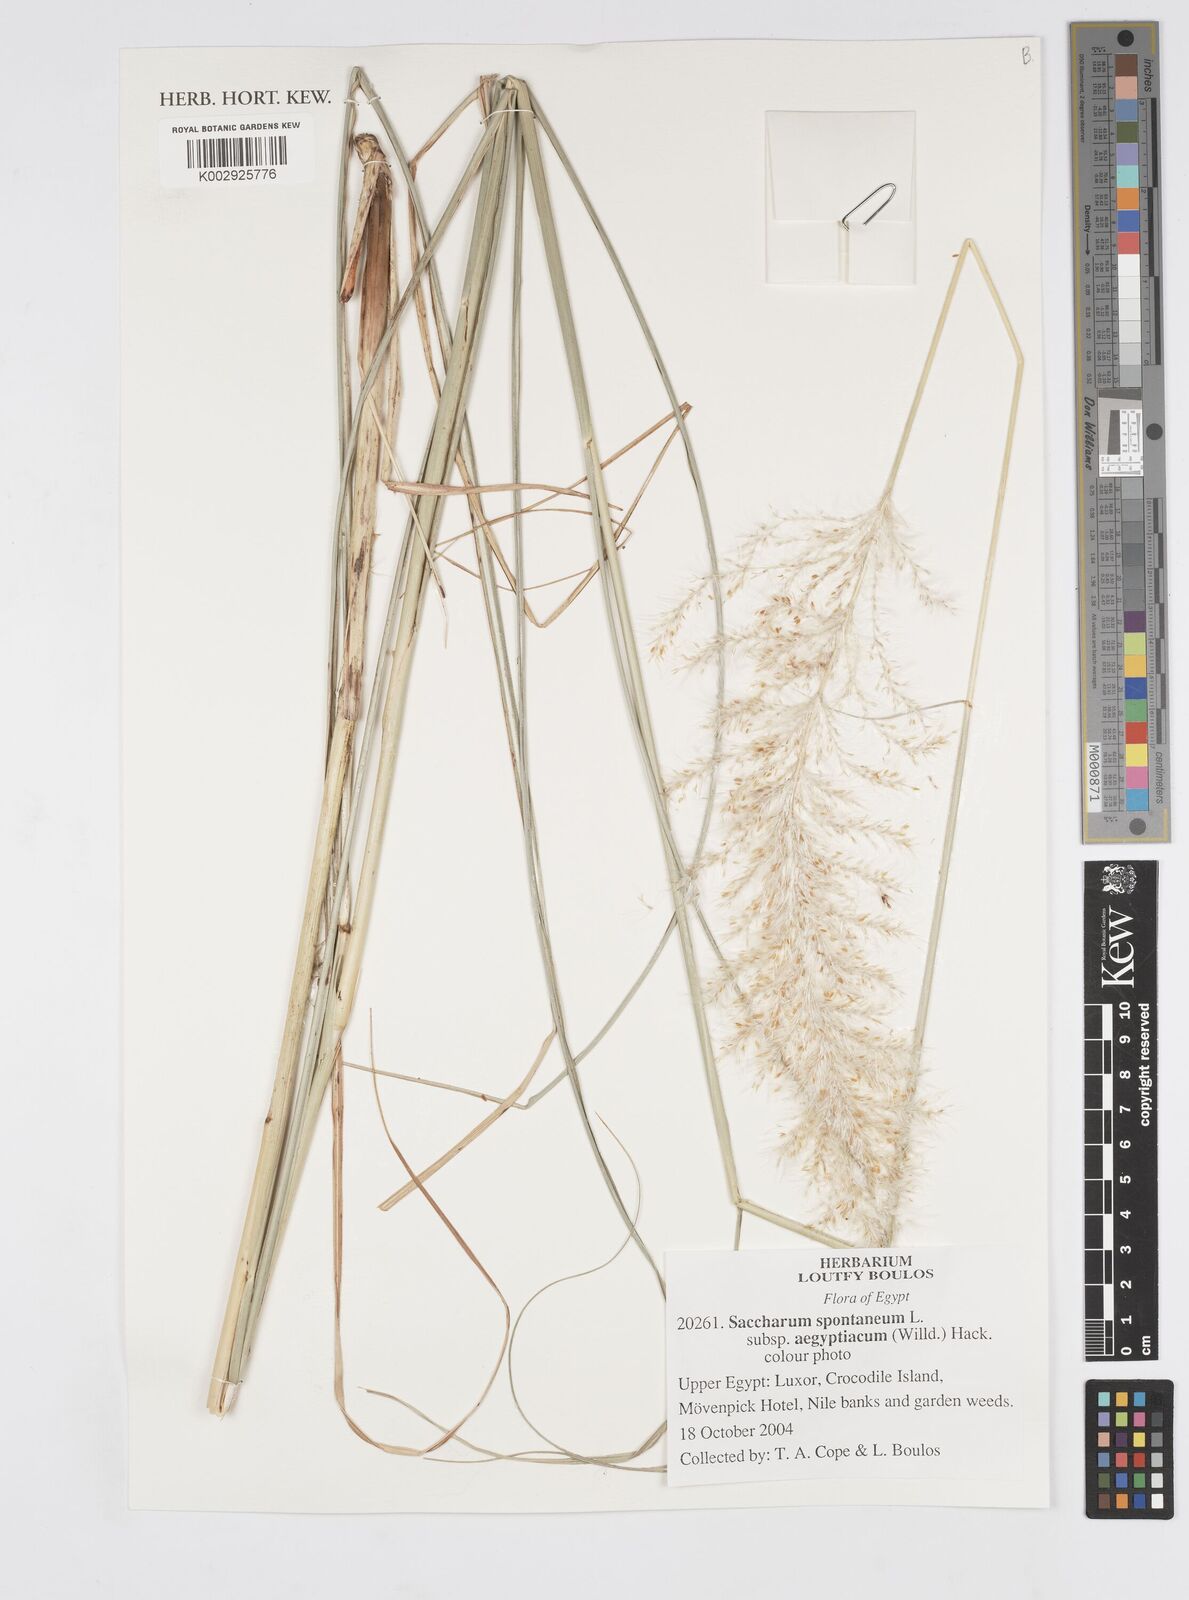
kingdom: Plantae
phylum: Tracheophyta
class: Liliopsida
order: Poales
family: Poaceae
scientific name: Poaceae
